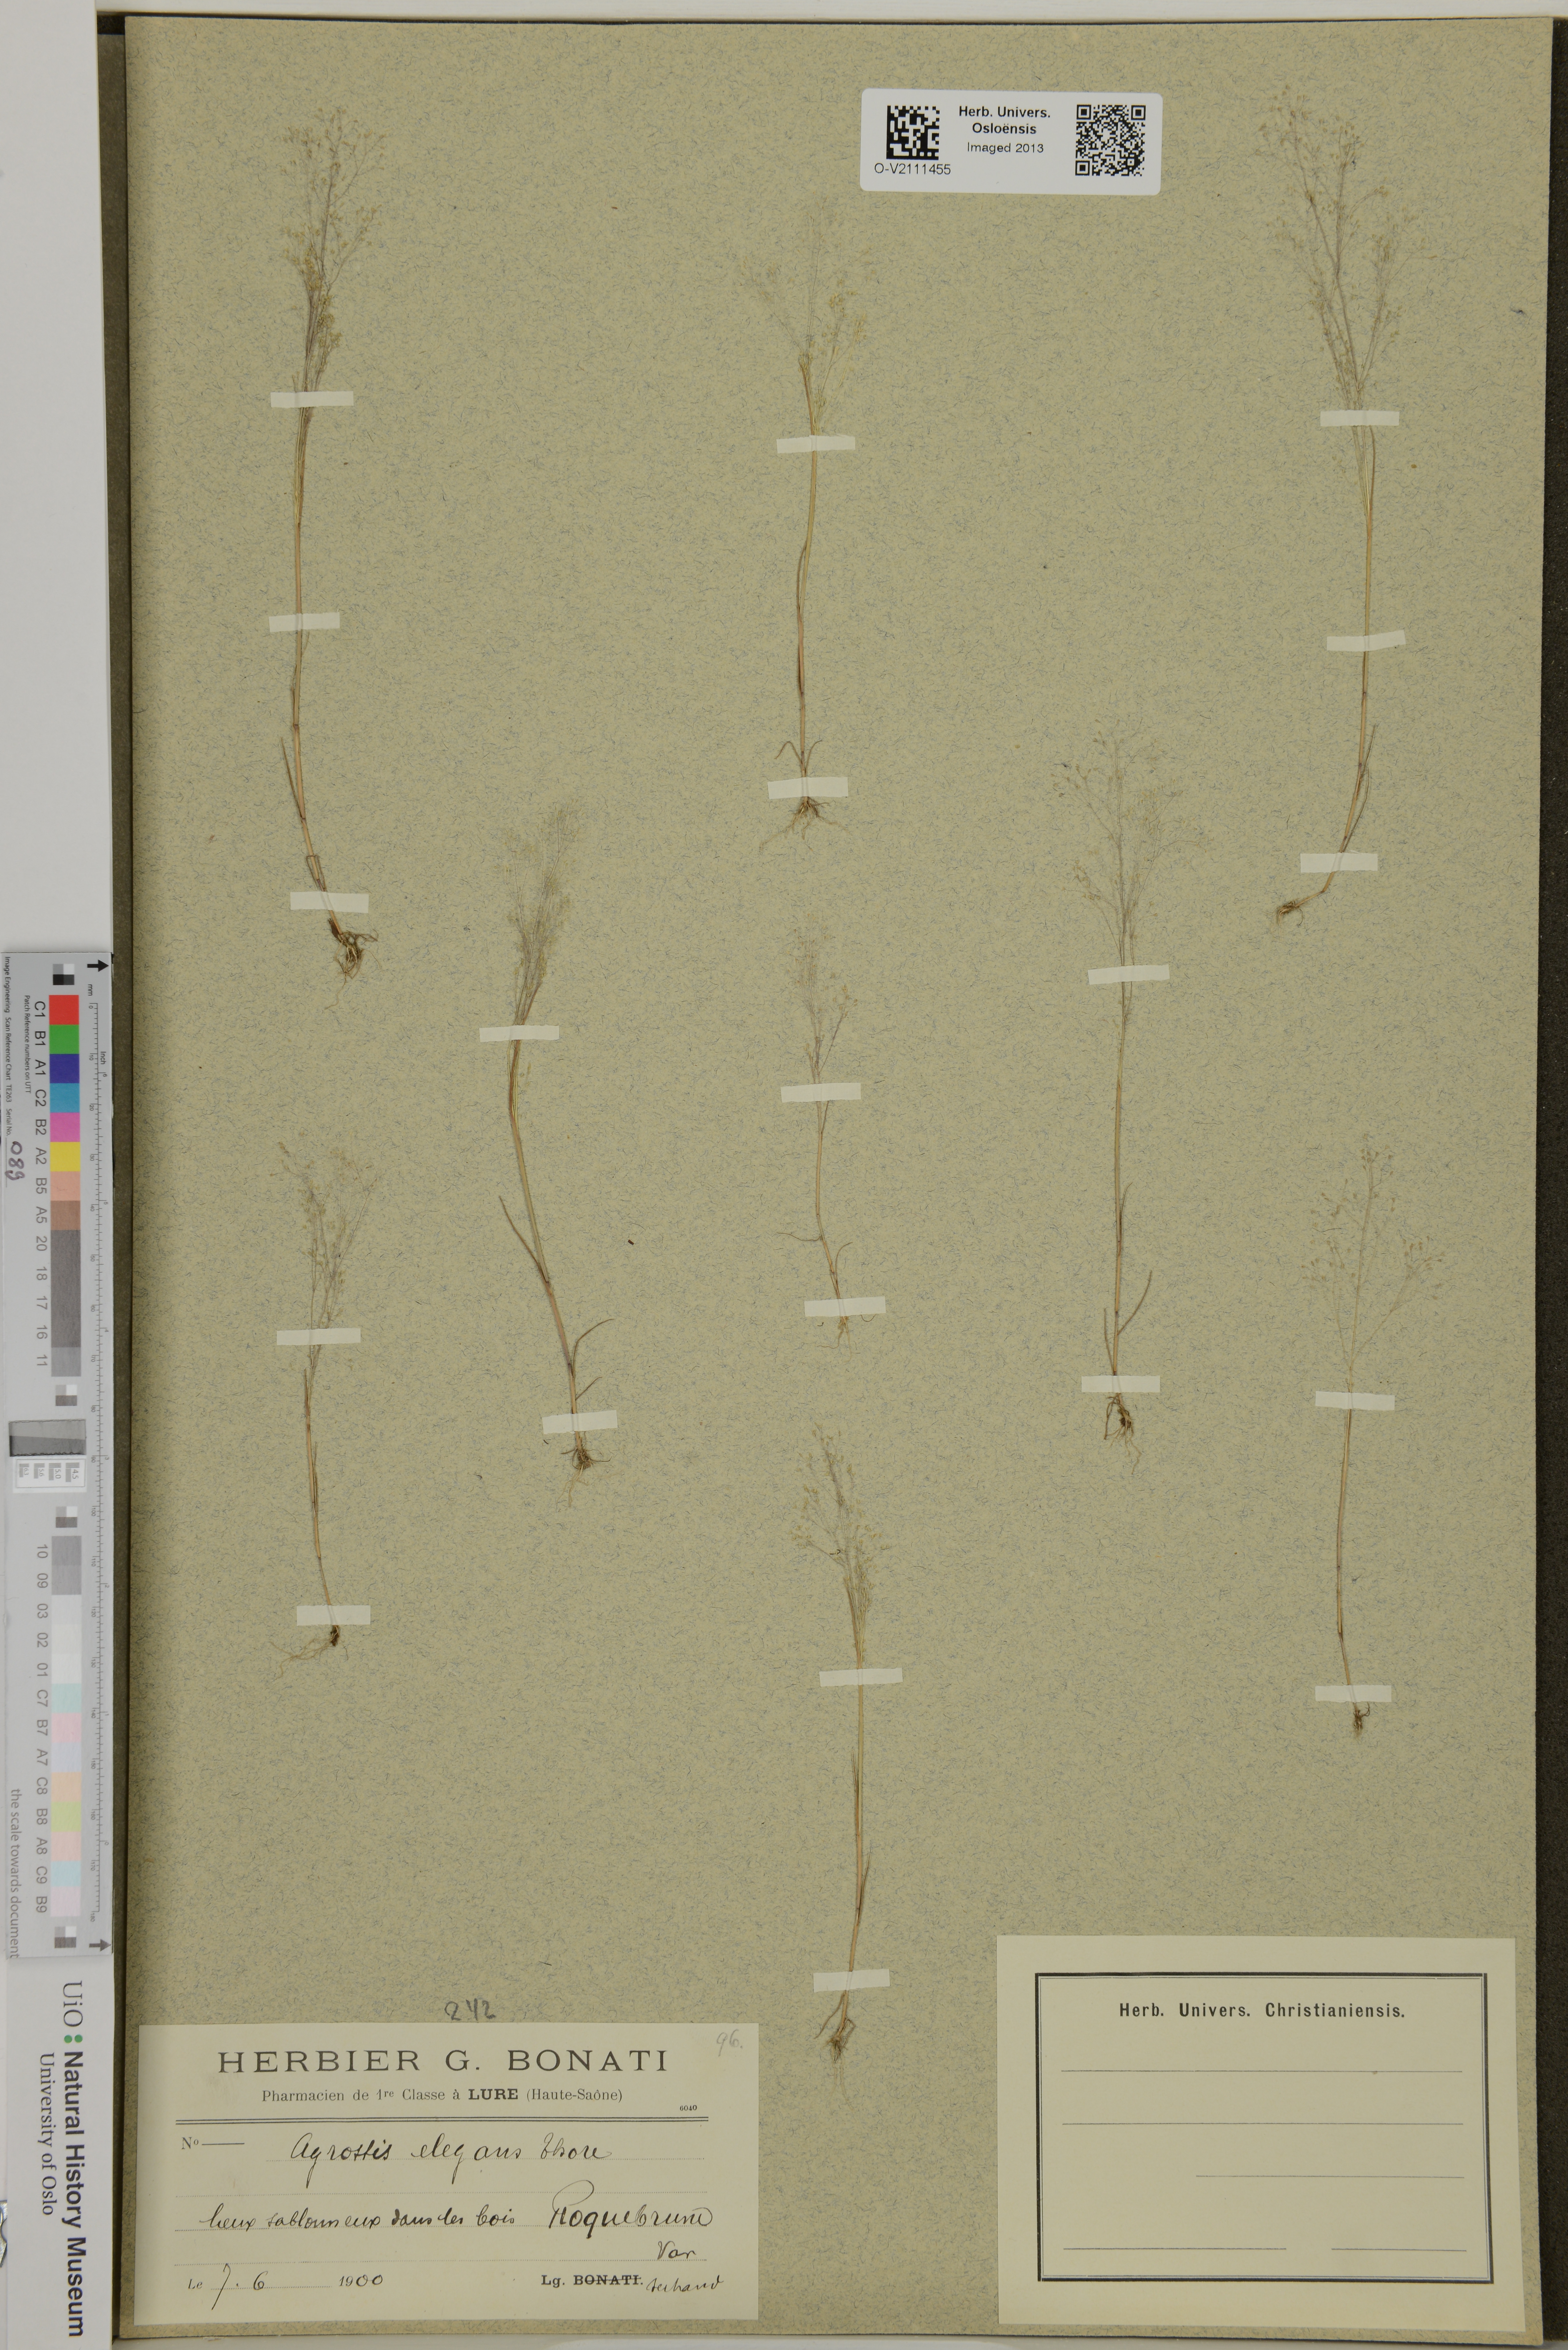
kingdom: Plantae
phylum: Tracheophyta
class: Liliopsida
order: Poales
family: Poaceae
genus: Agrostis
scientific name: Agrostis
